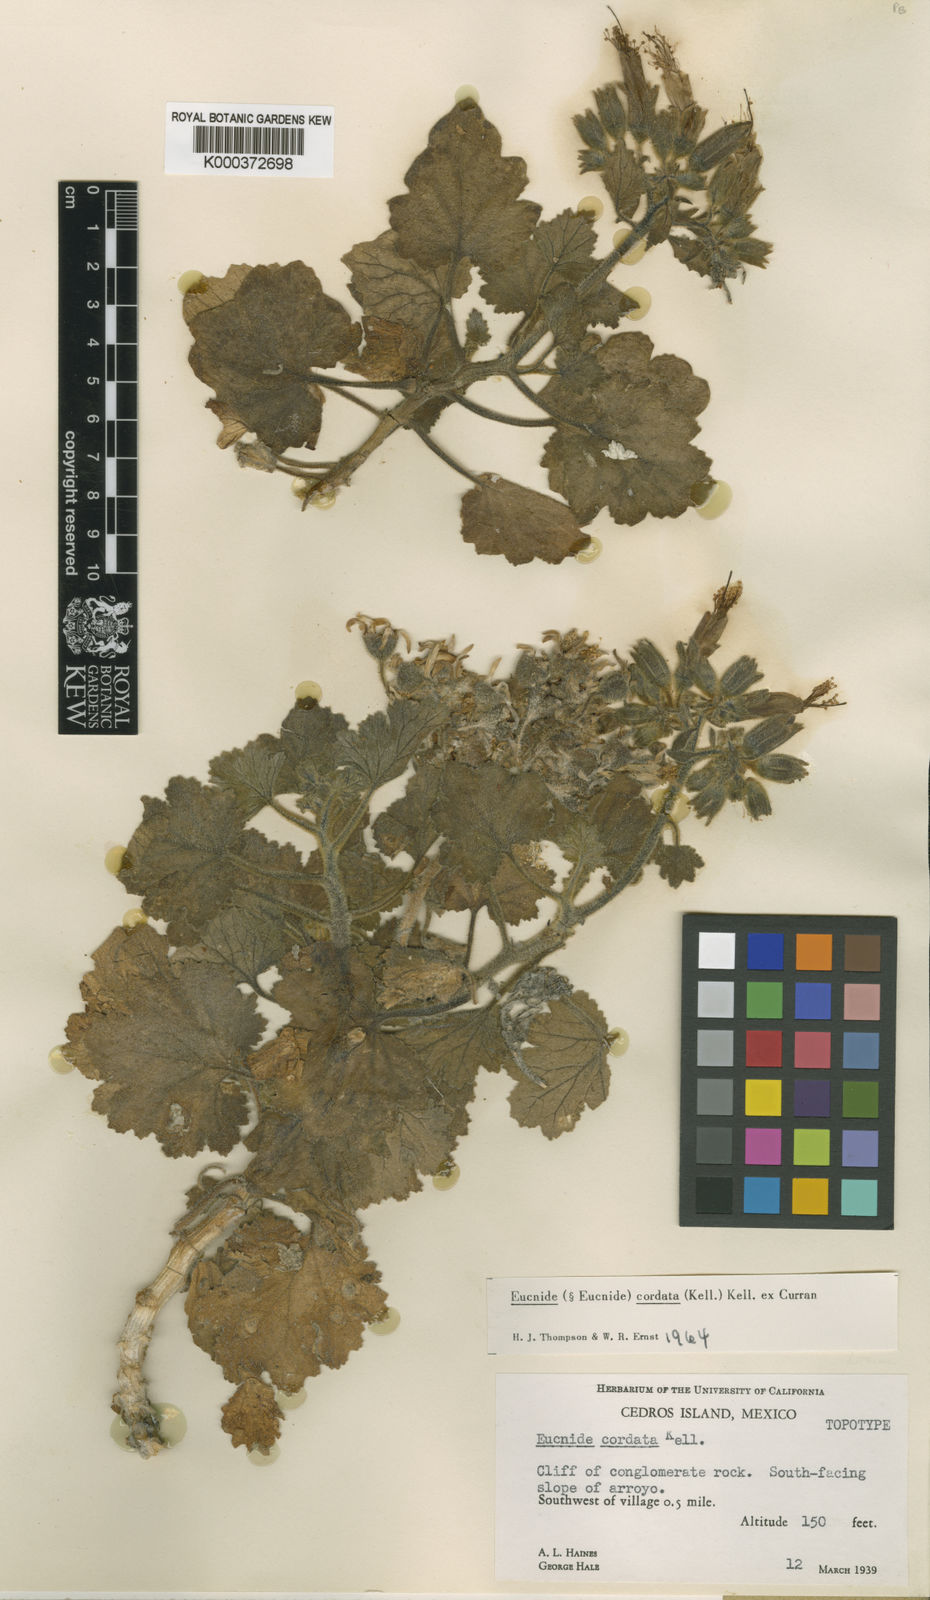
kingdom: Plantae
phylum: Tracheophyta
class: Magnoliopsida
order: Cornales
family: Loasaceae
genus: Eucnide
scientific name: Eucnide cordata
